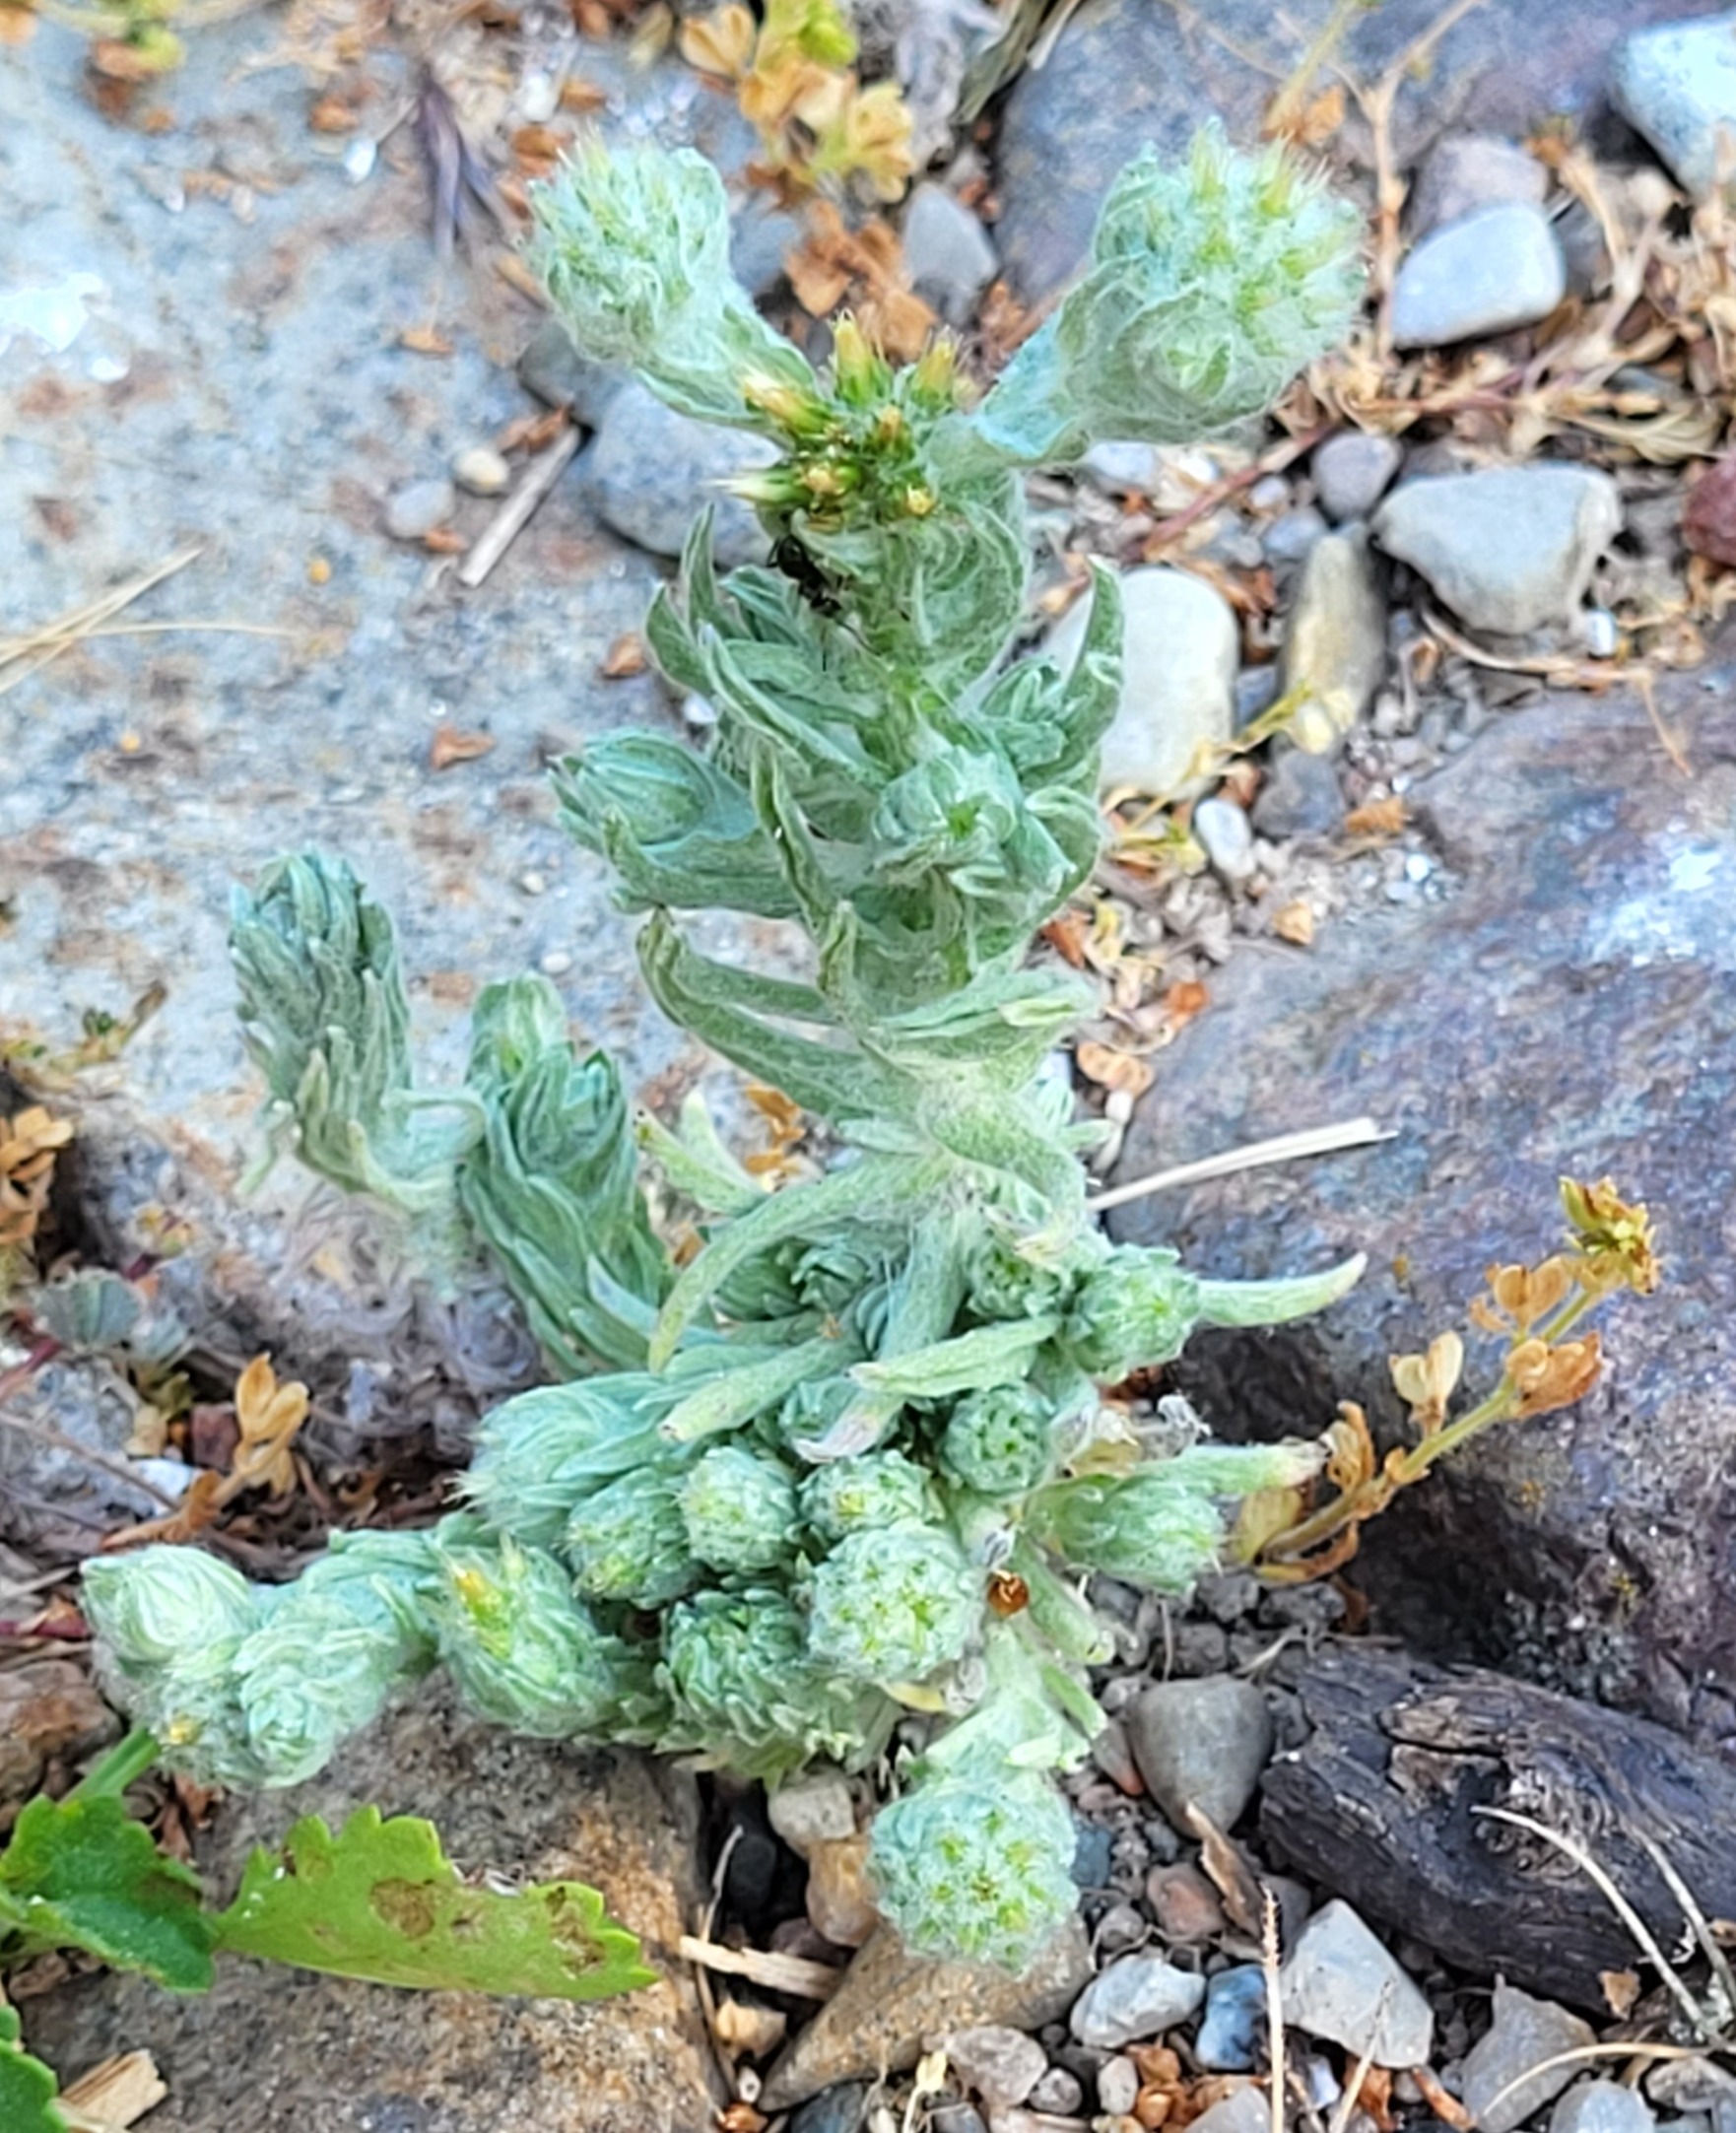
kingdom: Plantae
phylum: Tracheophyta
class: Magnoliopsida
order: Asterales
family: Asteraceae
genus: Filago
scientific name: Filago germanica
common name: Kugle-museurt
